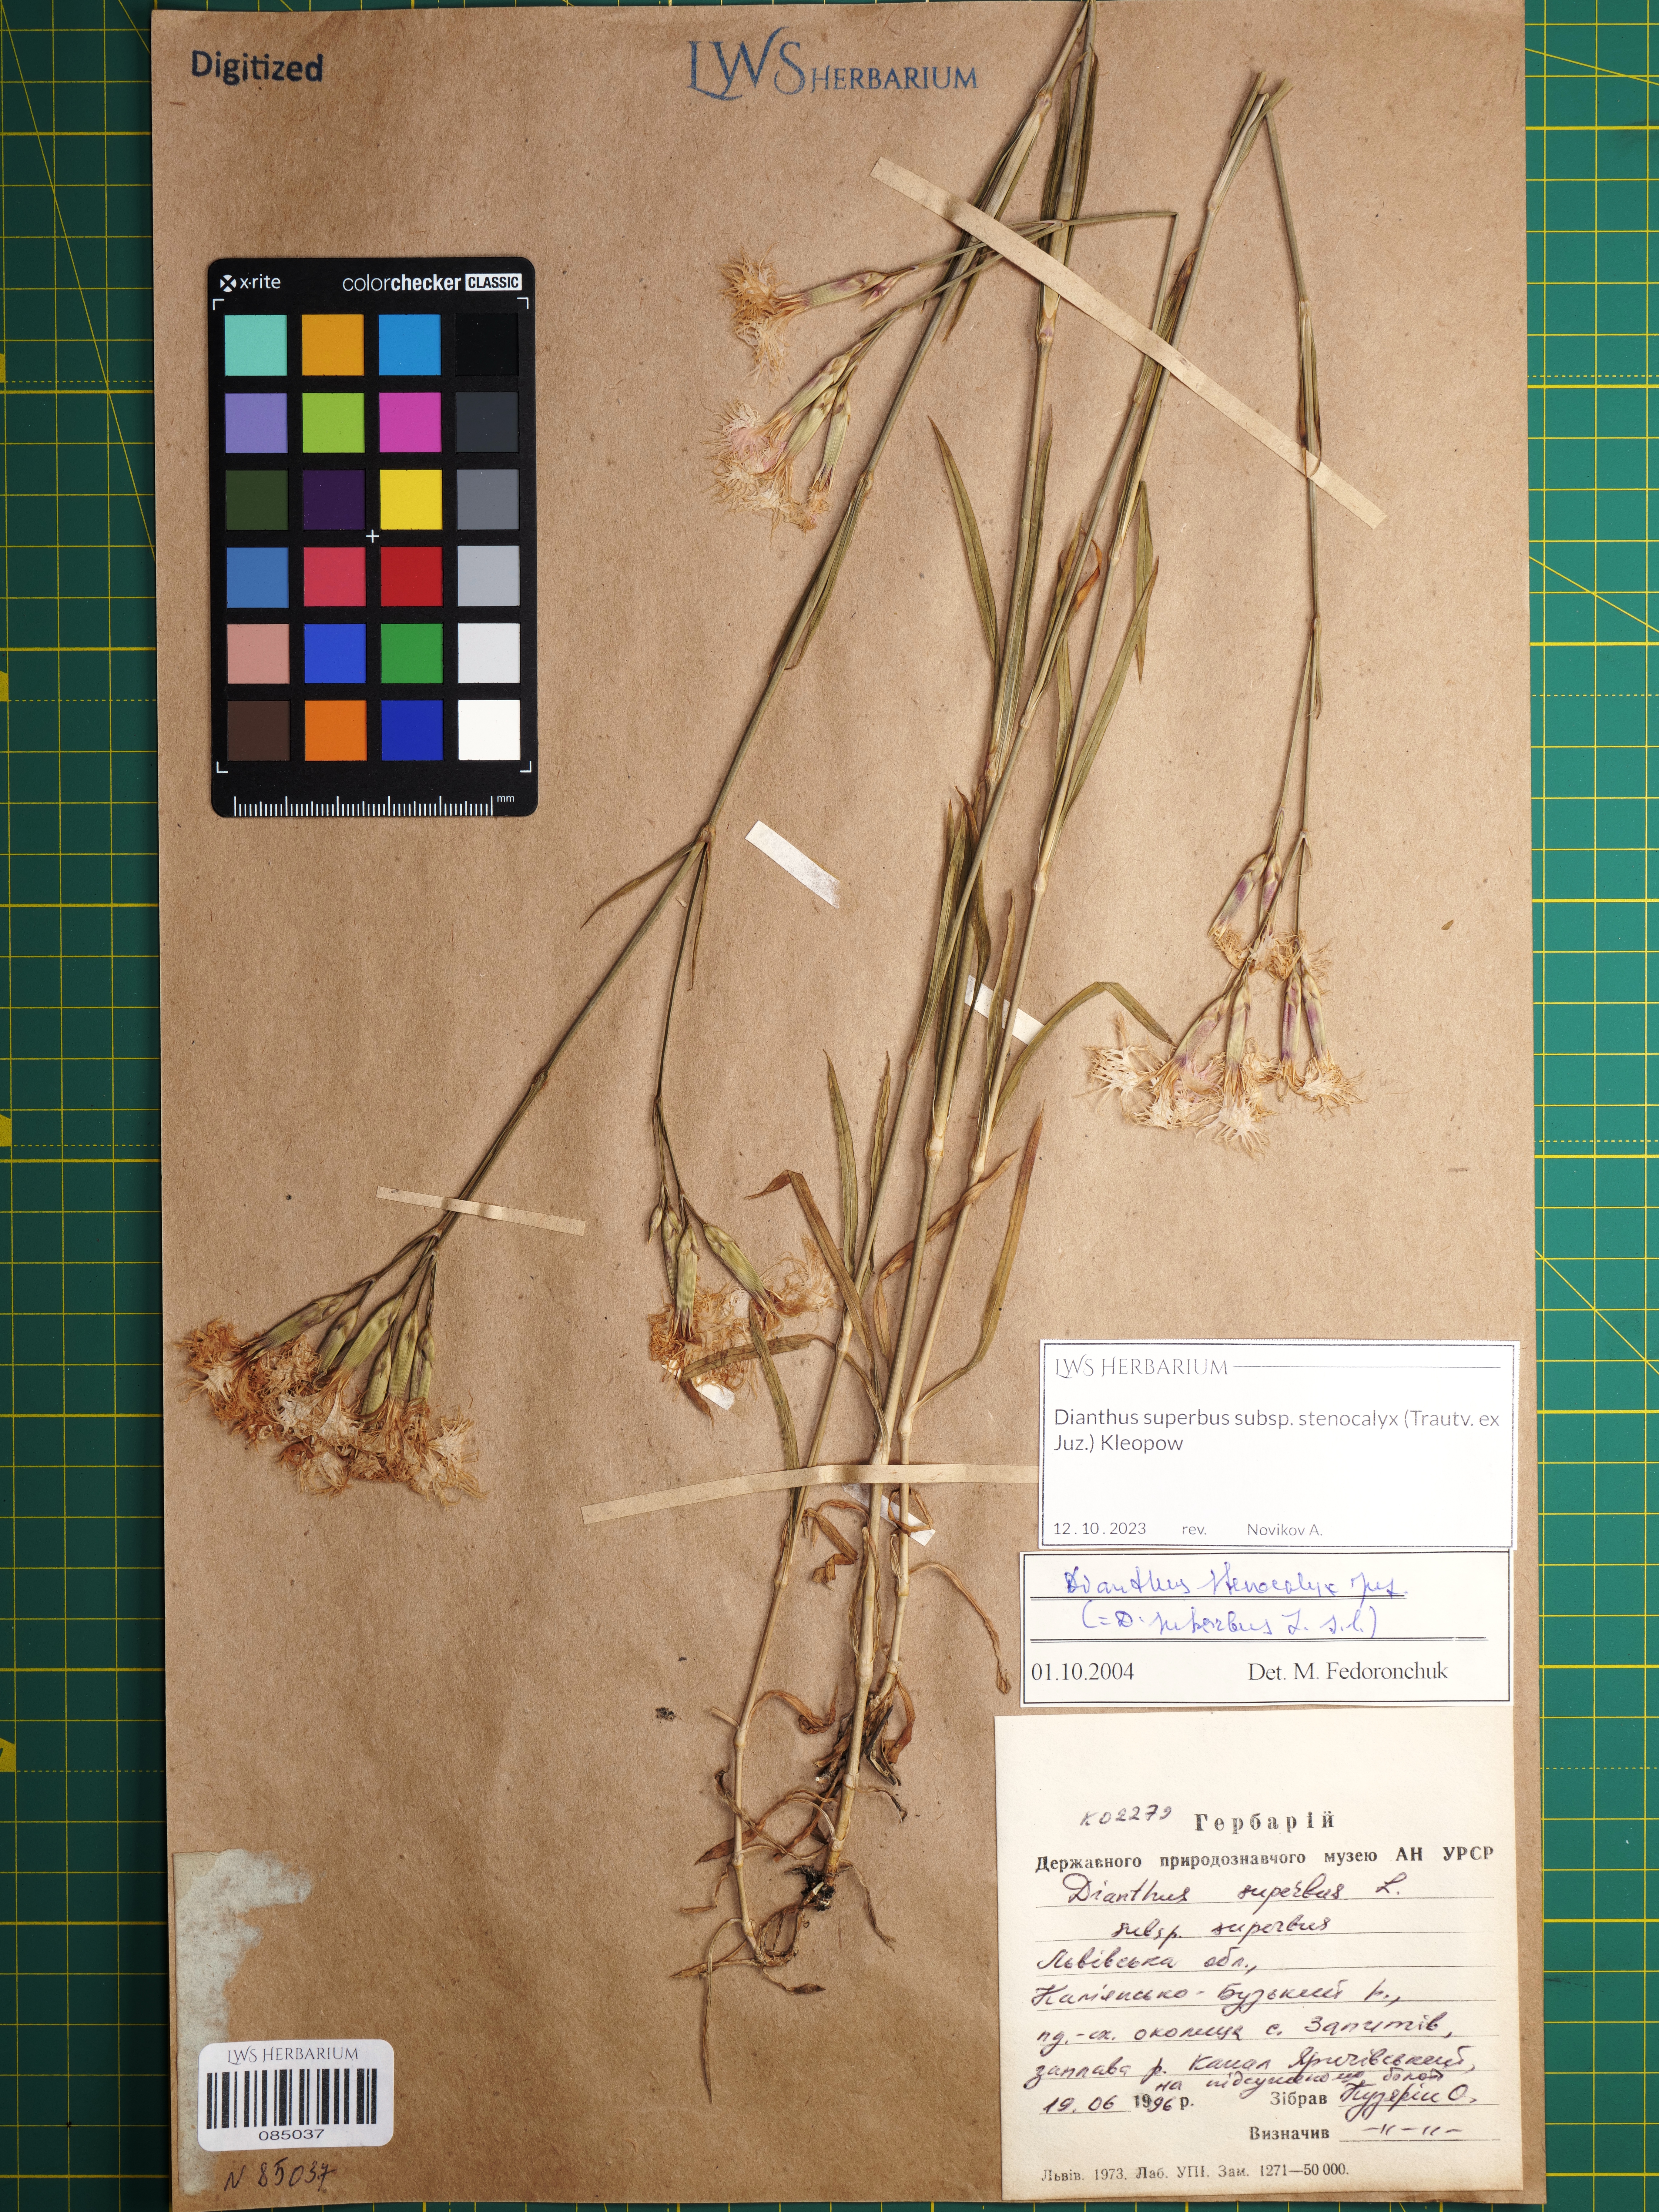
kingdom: Plantae
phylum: Tracheophyta
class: Magnoliopsida
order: Caryophyllales
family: Caryophyllaceae
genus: Dianthus
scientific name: Dianthus superbus
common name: Fringed pink
